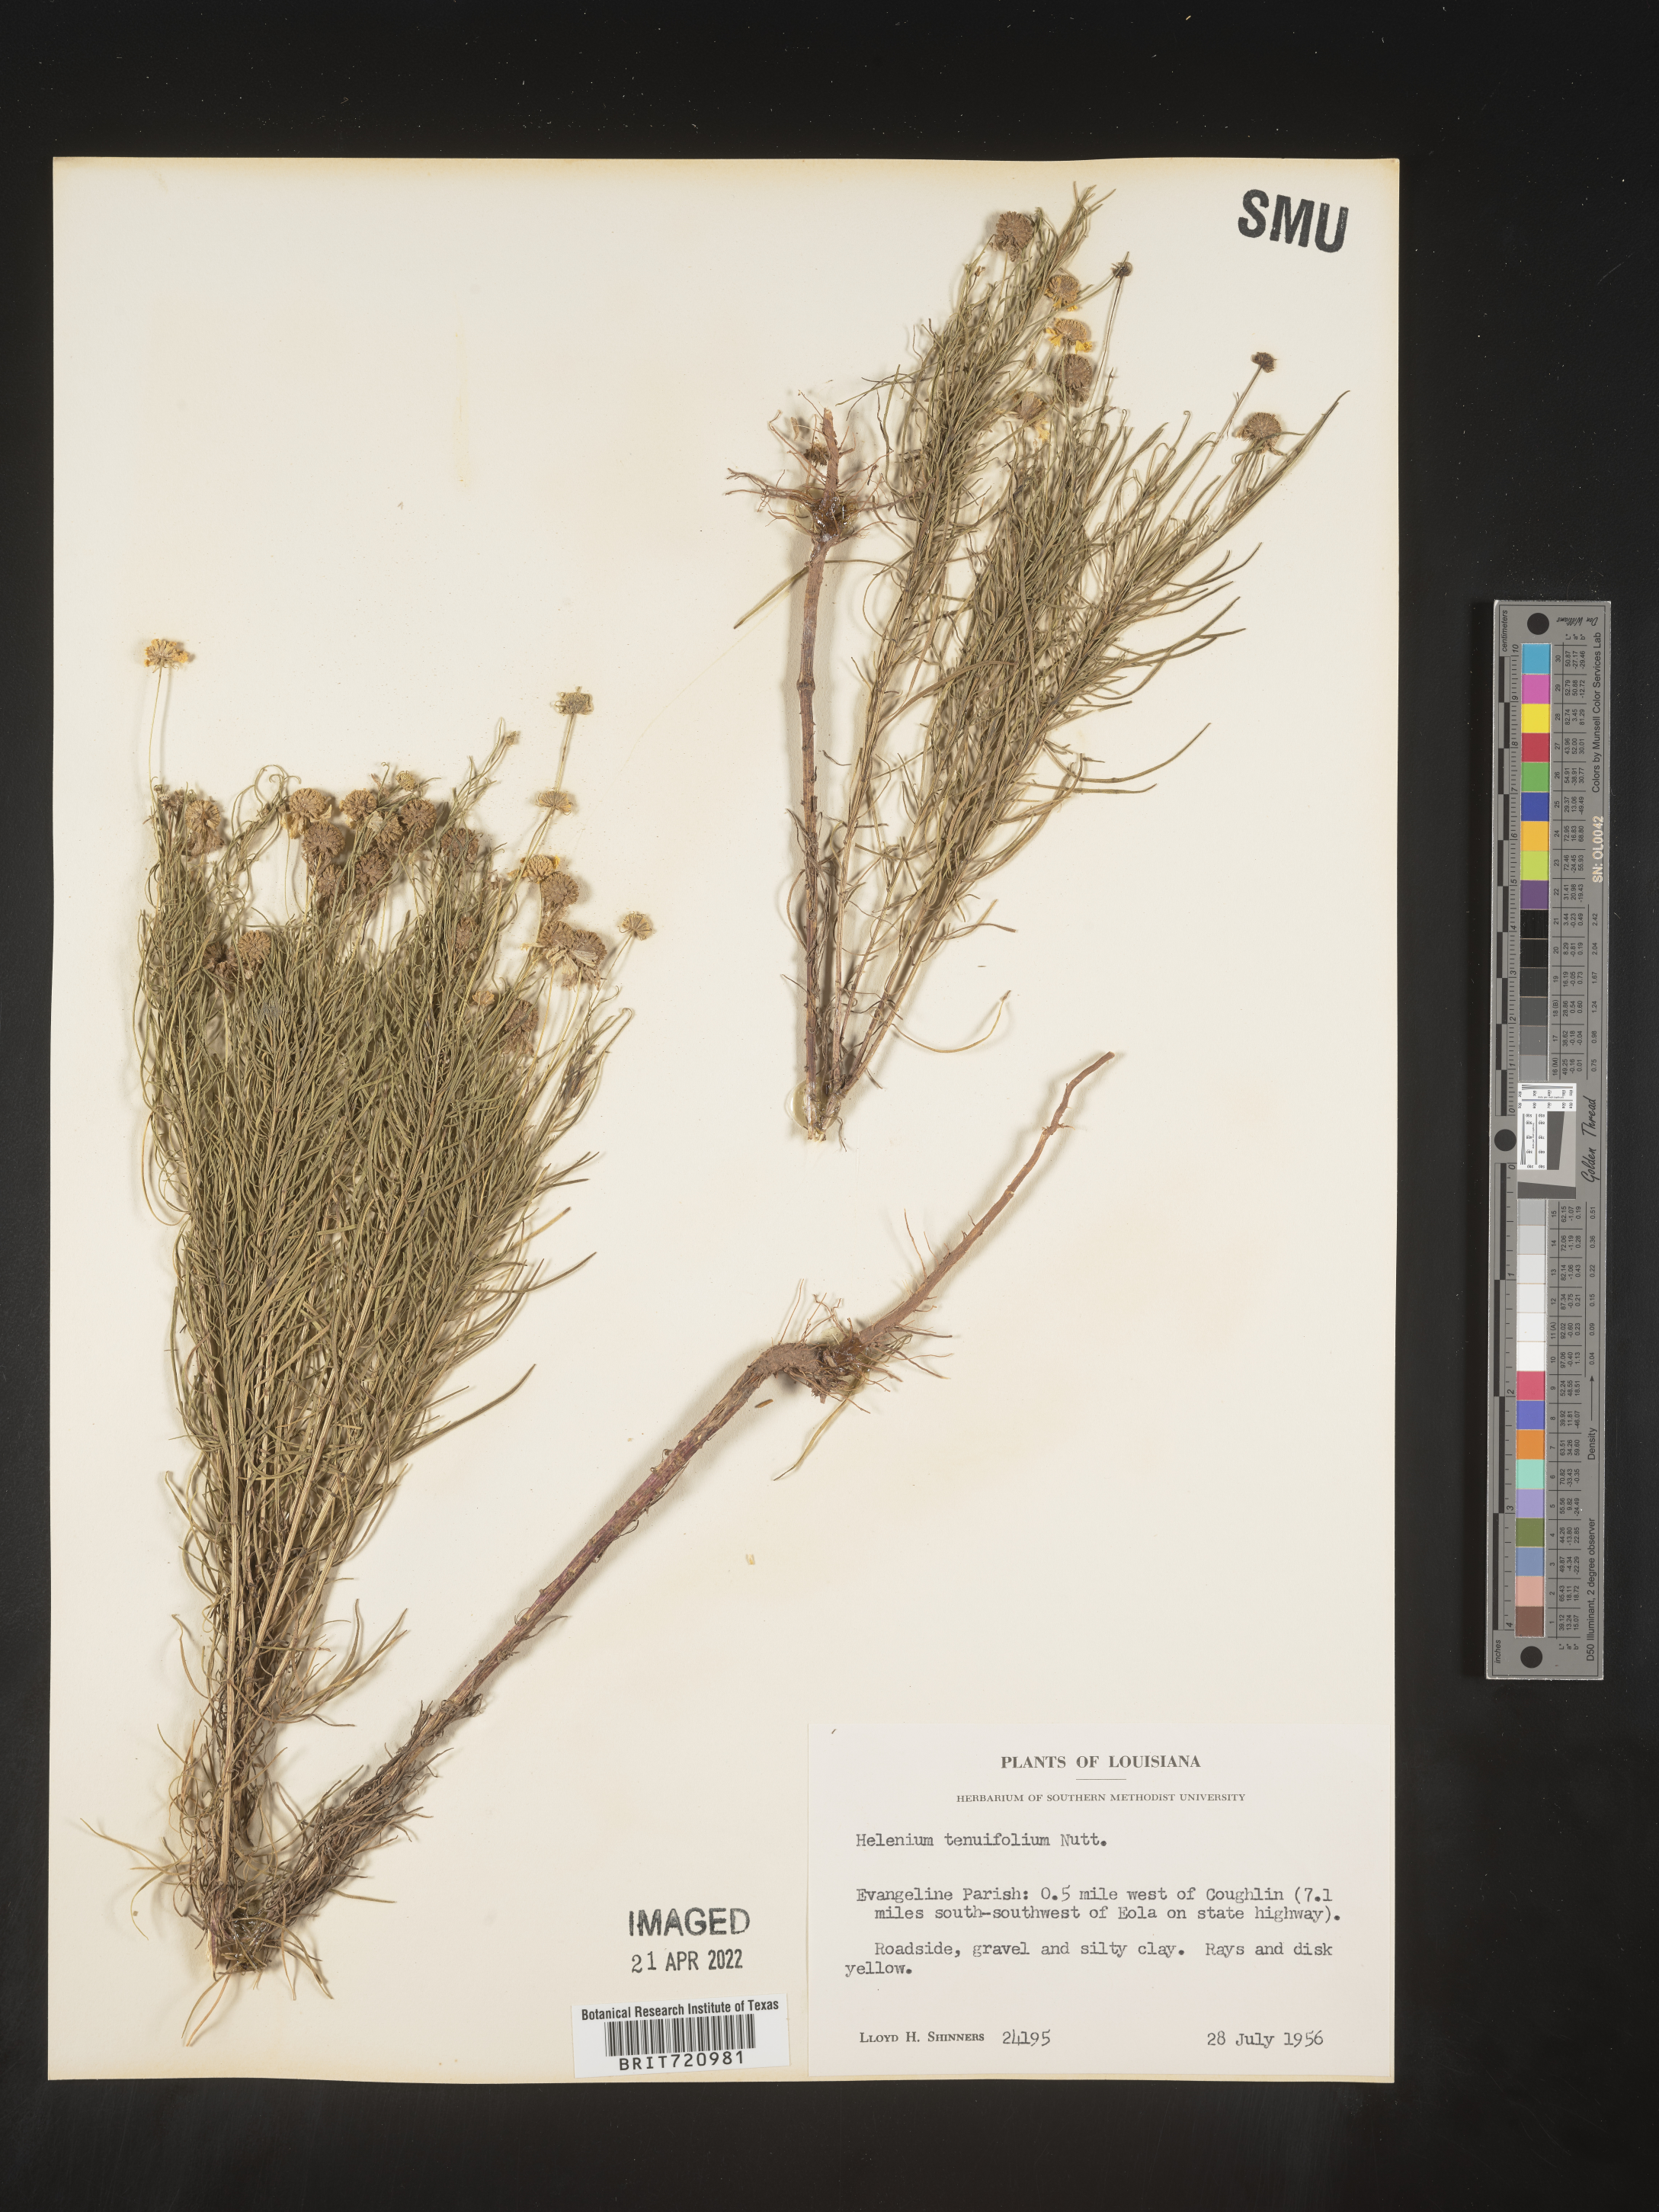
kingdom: Plantae
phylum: Tracheophyta
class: Magnoliopsida
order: Asterales
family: Asteraceae
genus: Helenium
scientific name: Helenium amarum
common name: Bitter sneezeweed
